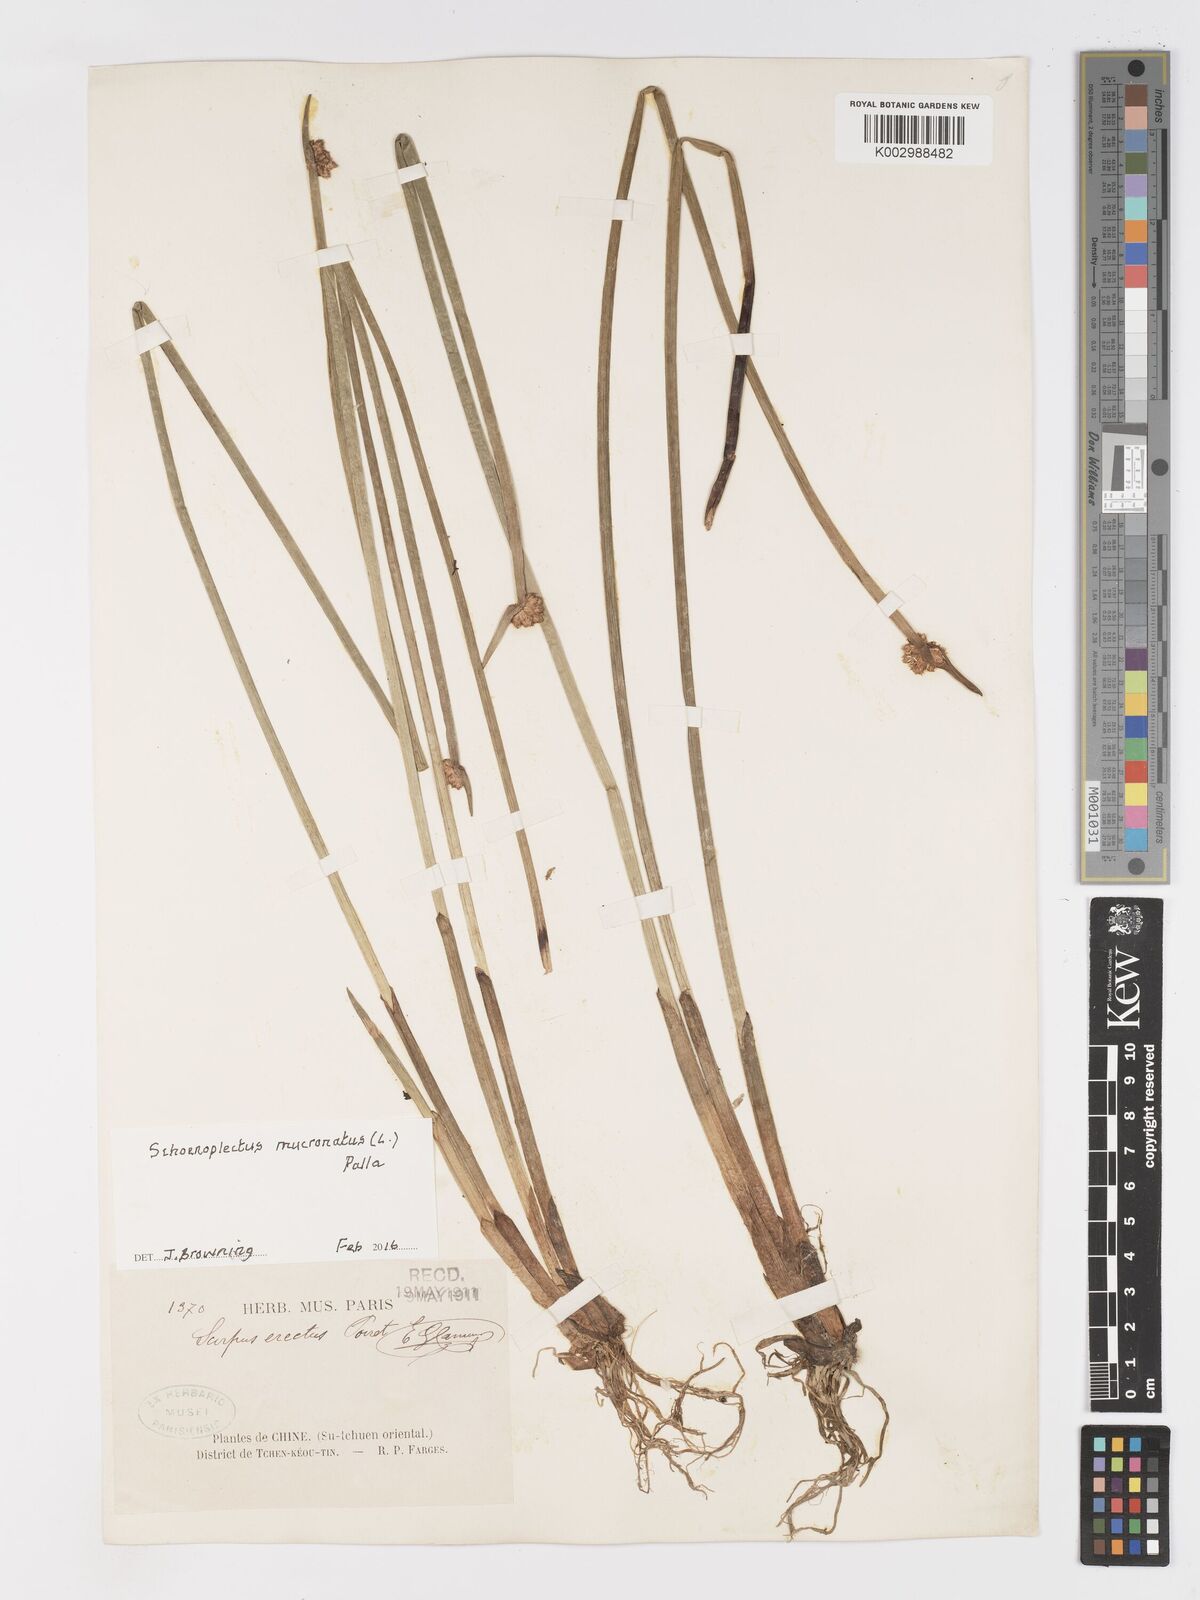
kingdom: Plantae
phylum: Tracheophyta
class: Liliopsida
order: Poales
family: Cyperaceae
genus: Schoenoplectiella
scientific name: Schoenoplectiella mucronata
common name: Bog bulrush
